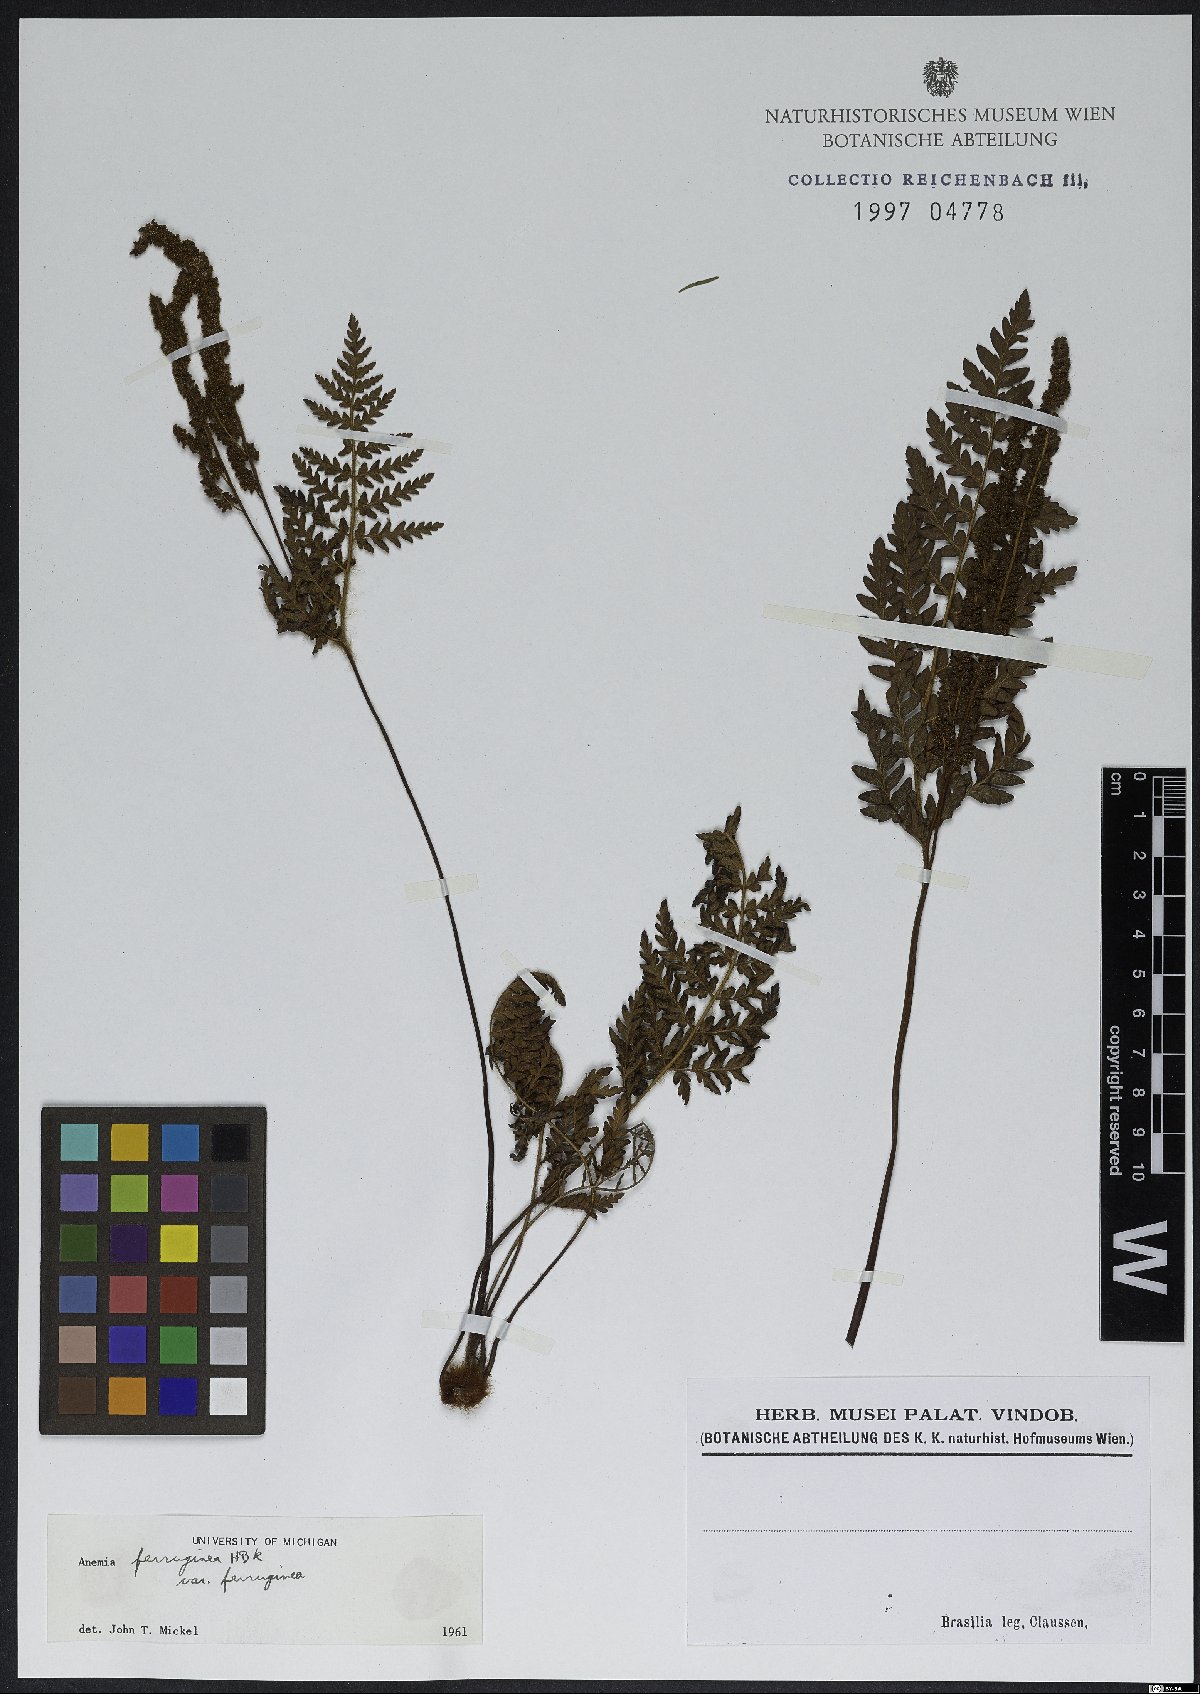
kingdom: Plantae
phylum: Tracheophyta
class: Polypodiopsida
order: Schizaeales
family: Anemiaceae
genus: Anemia
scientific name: Anemia ferruginea
